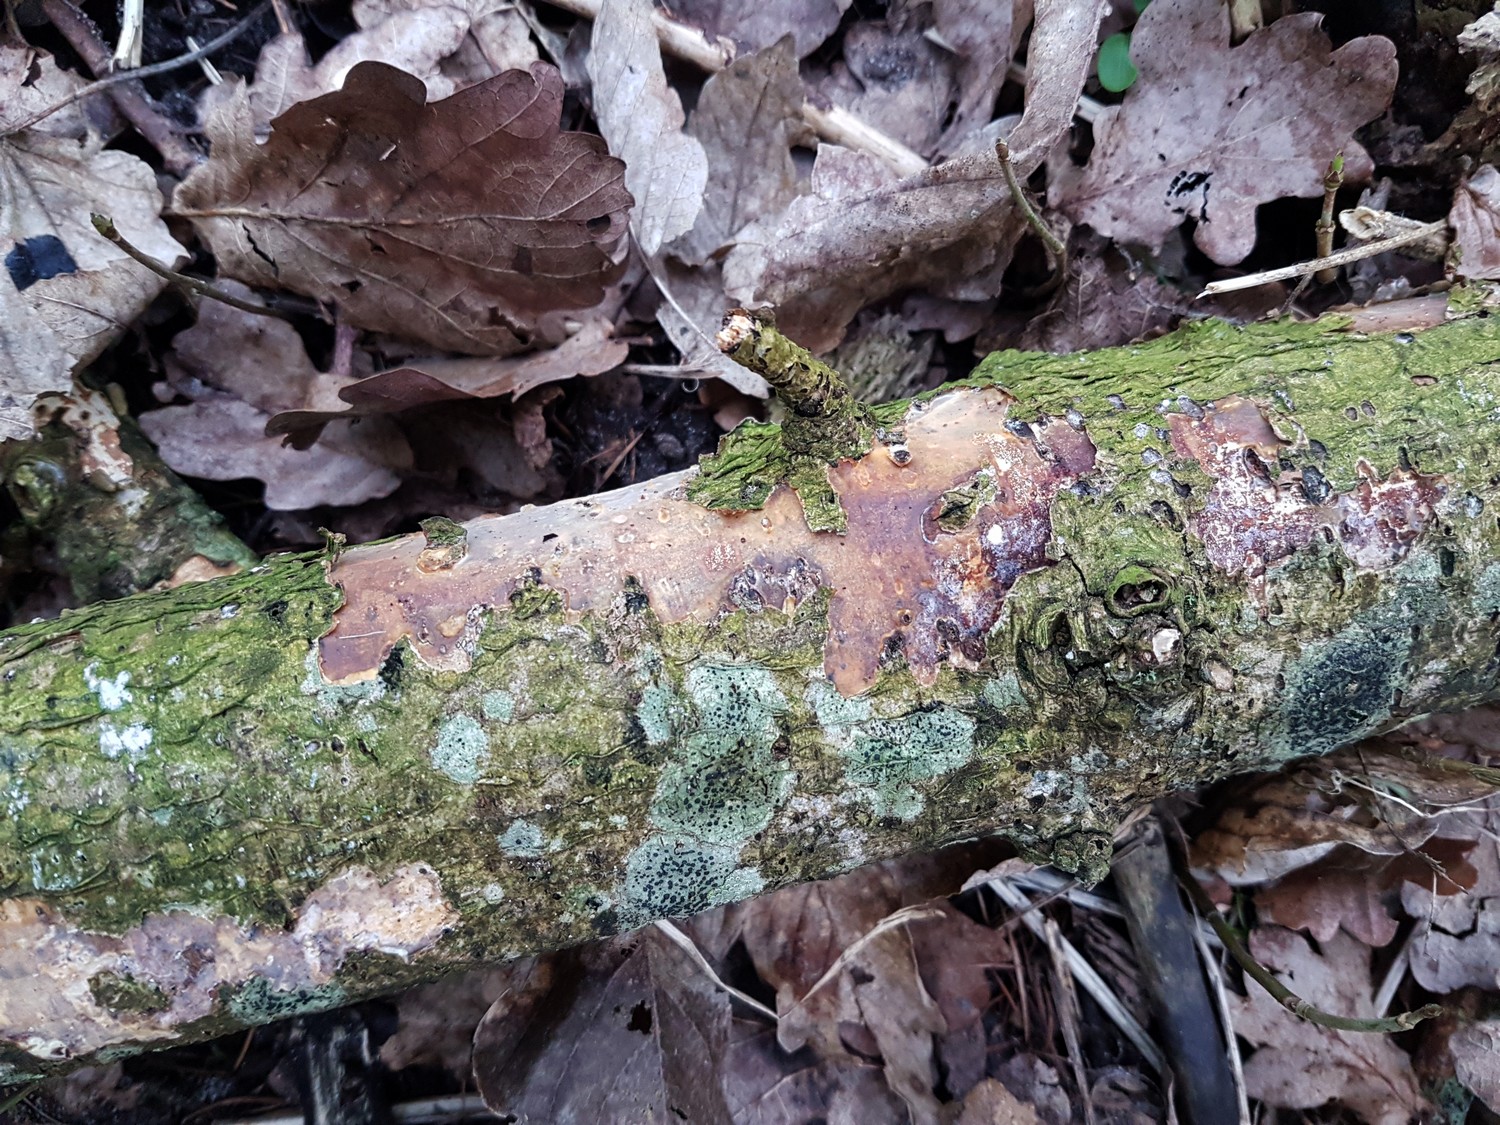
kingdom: Fungi
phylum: Basidiomycota
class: Agaricomycetes
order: Corticiales
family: Vuilleminiaceae
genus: Vuilleminia
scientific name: Vuilleminia comedens
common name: almindelig barksprænger
